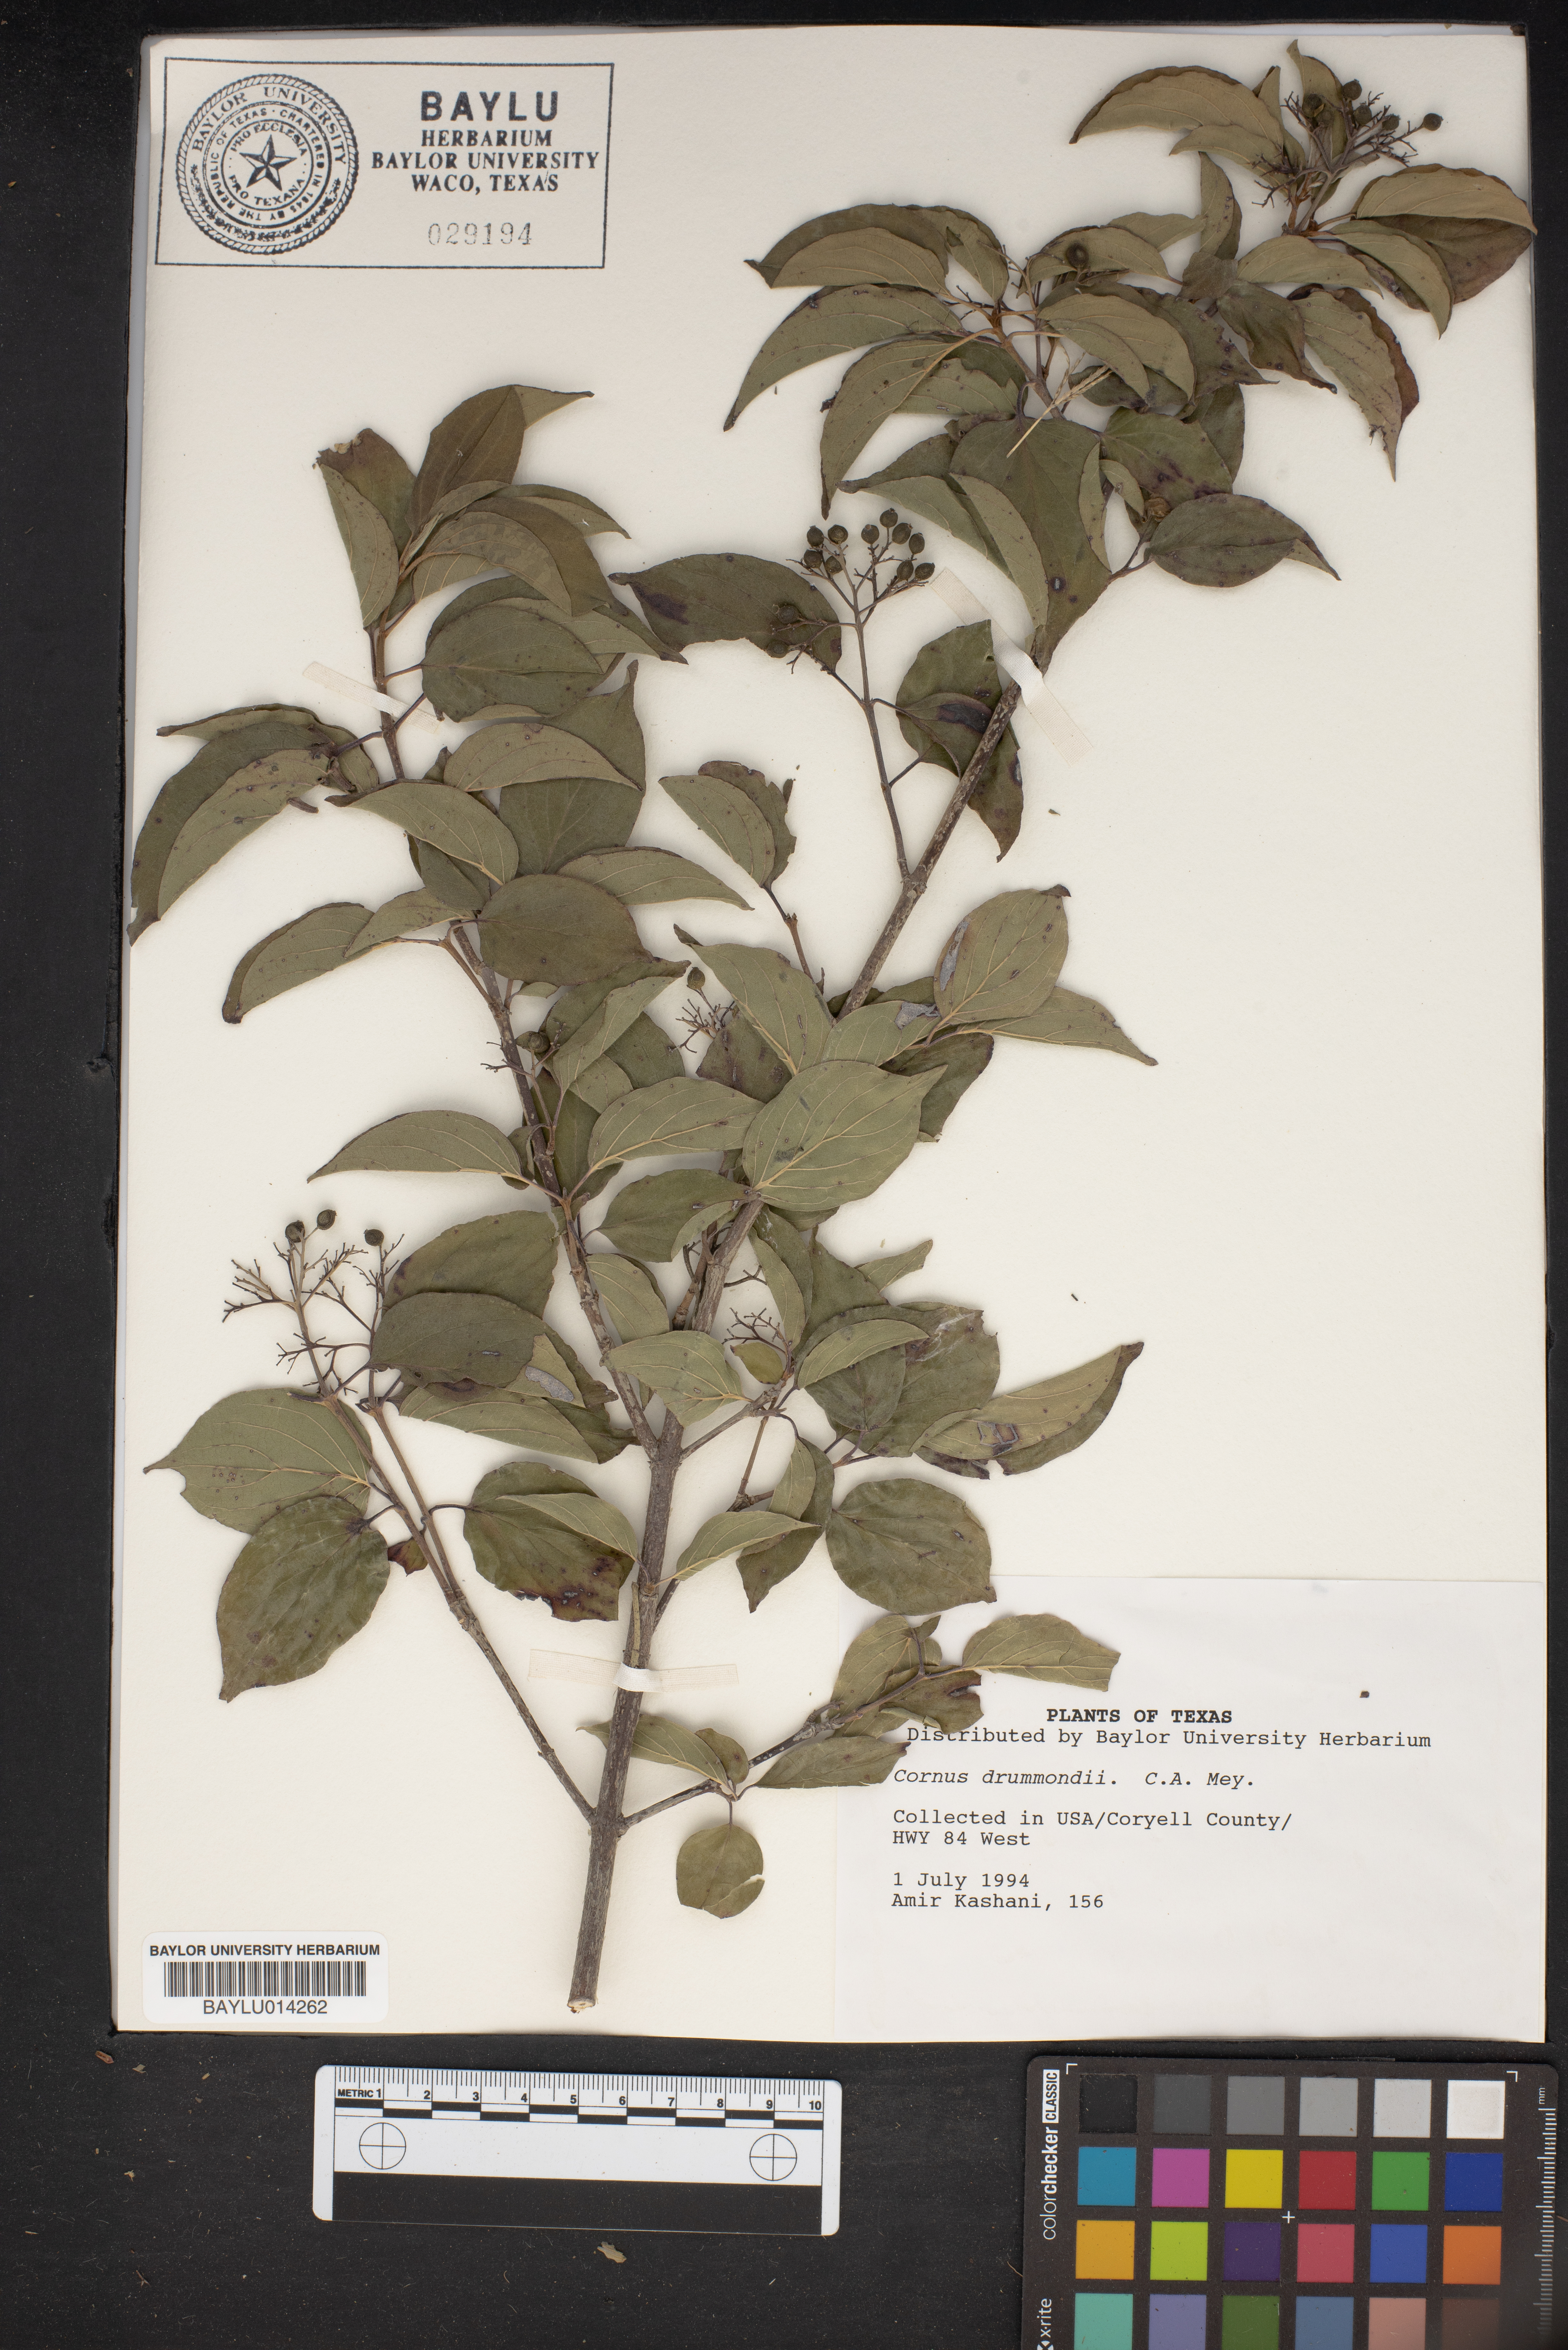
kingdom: Plantae
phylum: Tracheophyta
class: Magnoliopsida
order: Cornales
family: Cornaceae
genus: Cornus
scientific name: Cornus drummondii
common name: Rough-leaf dogwood
